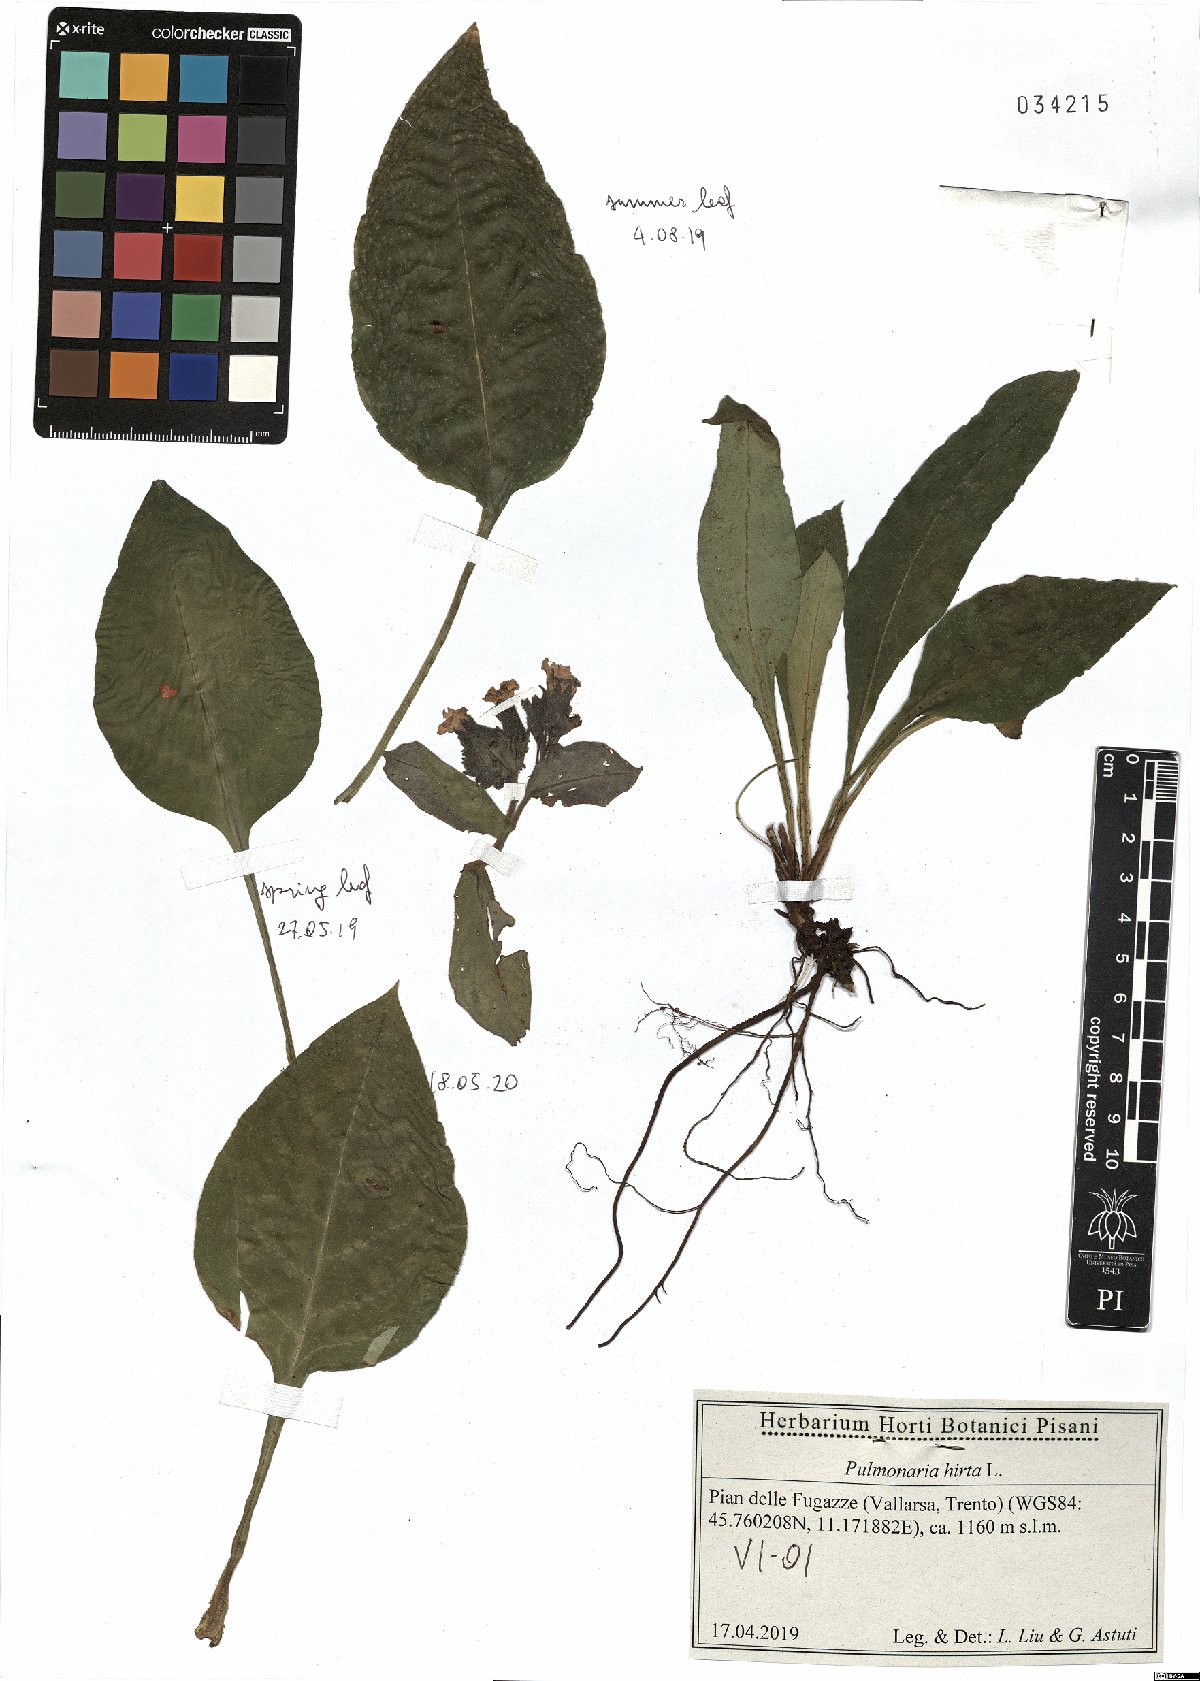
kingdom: Plantae
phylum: Tracheophyta
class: Magnoliopsida
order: Boraginales
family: Boraginaceae
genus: Pulmonaria
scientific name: Pulmonaria hirta
